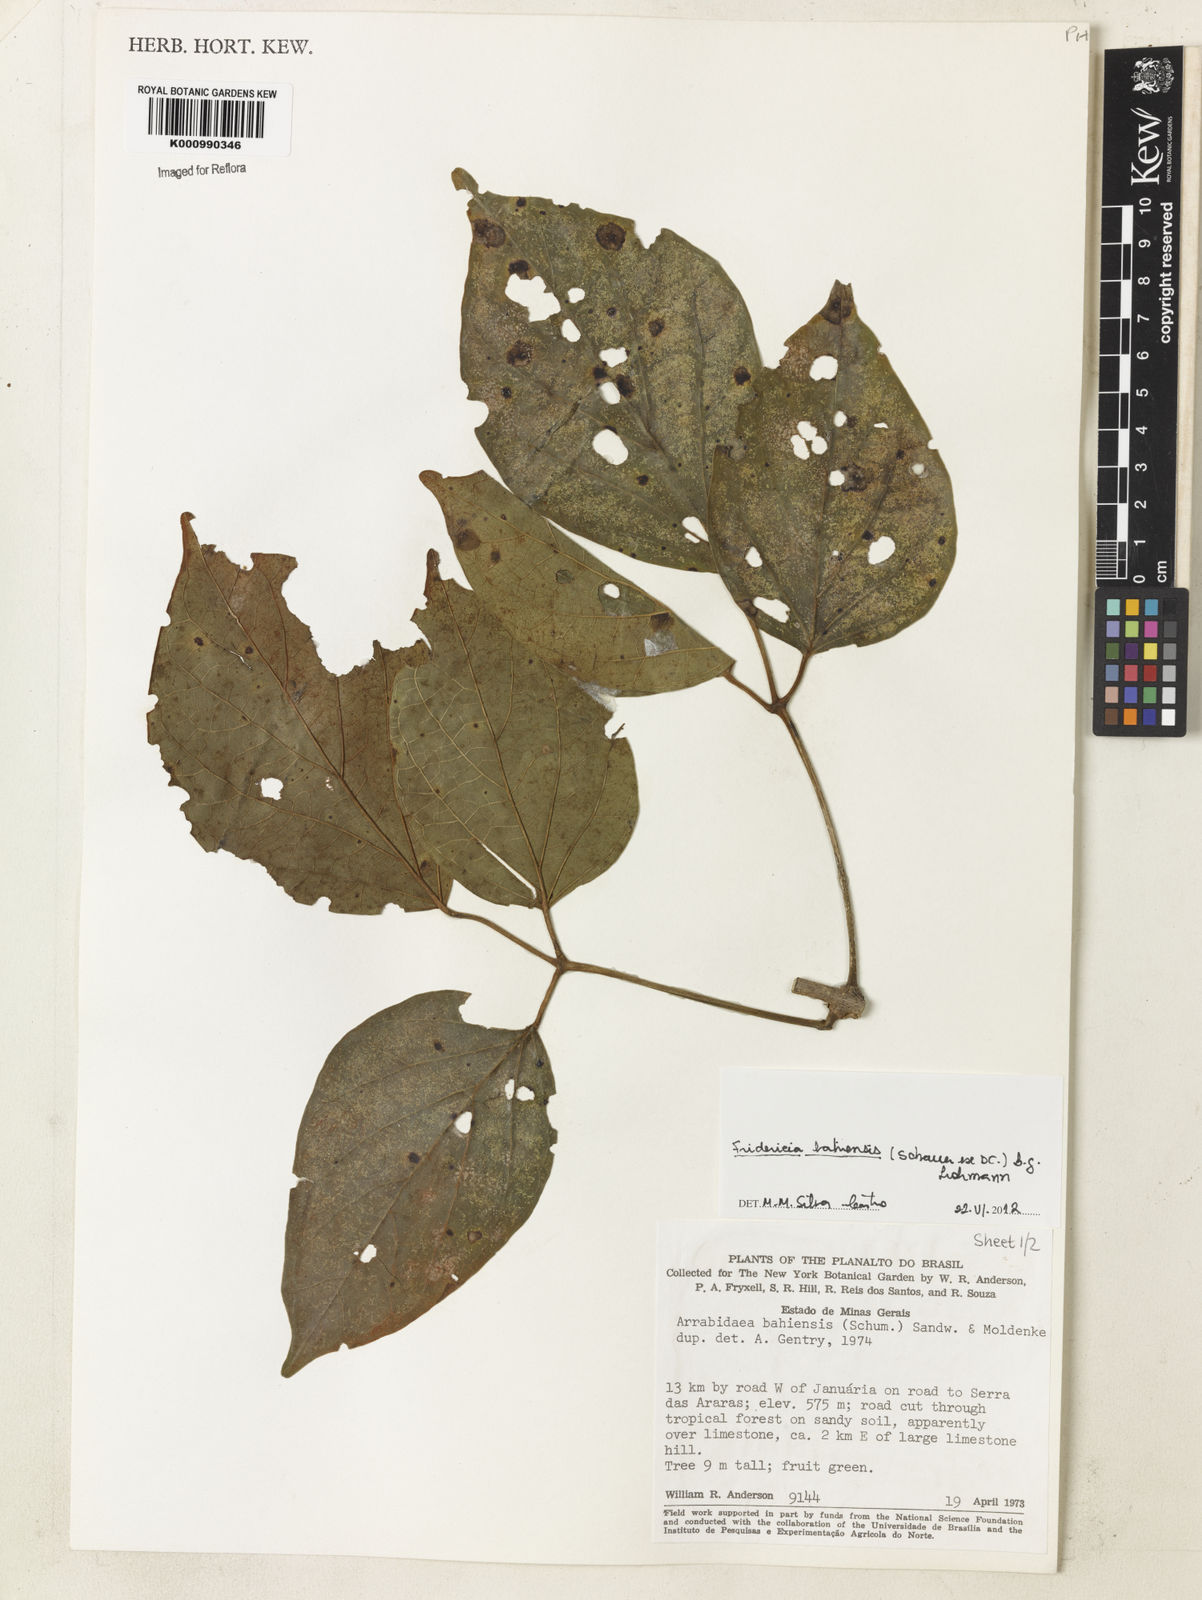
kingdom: Plantae
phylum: Tracheophyta
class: Magnoliopsida
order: Lamiales
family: Bignoniaceae
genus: Fridericia
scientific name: Fridericia bahiensis
